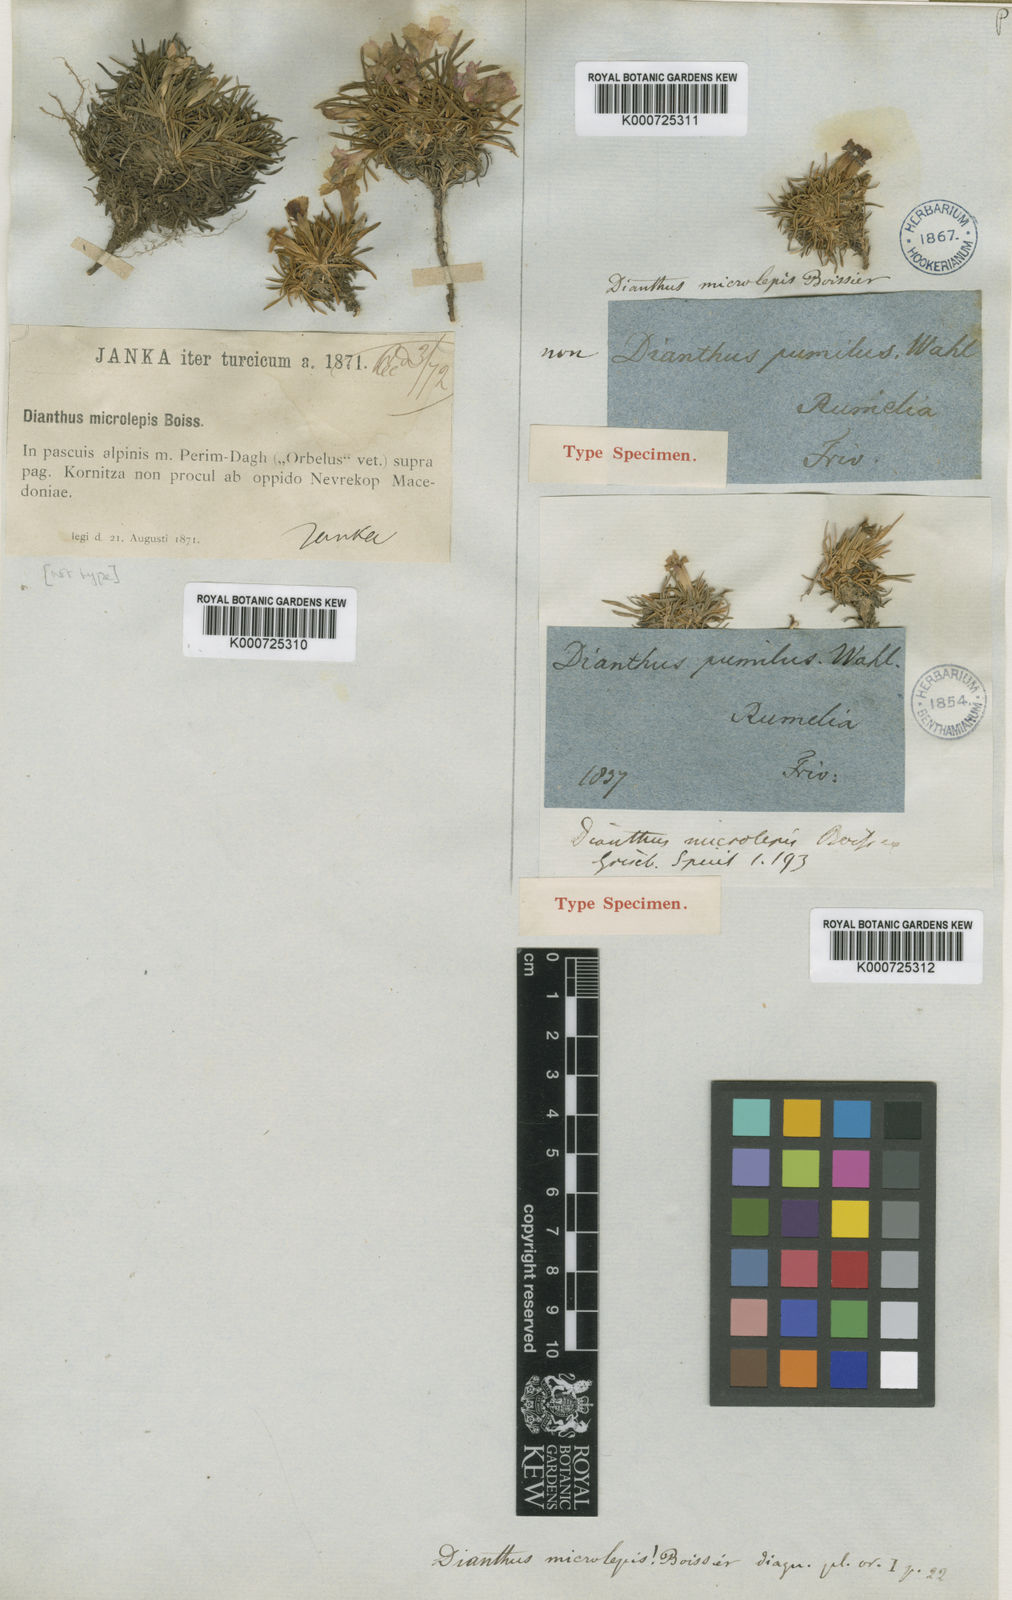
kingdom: Plantae
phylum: Tracheophyta
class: Magnoliopsida
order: Caryophyllales
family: Caryophyllaceae
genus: Dianthus
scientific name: Dianthus microlepis
